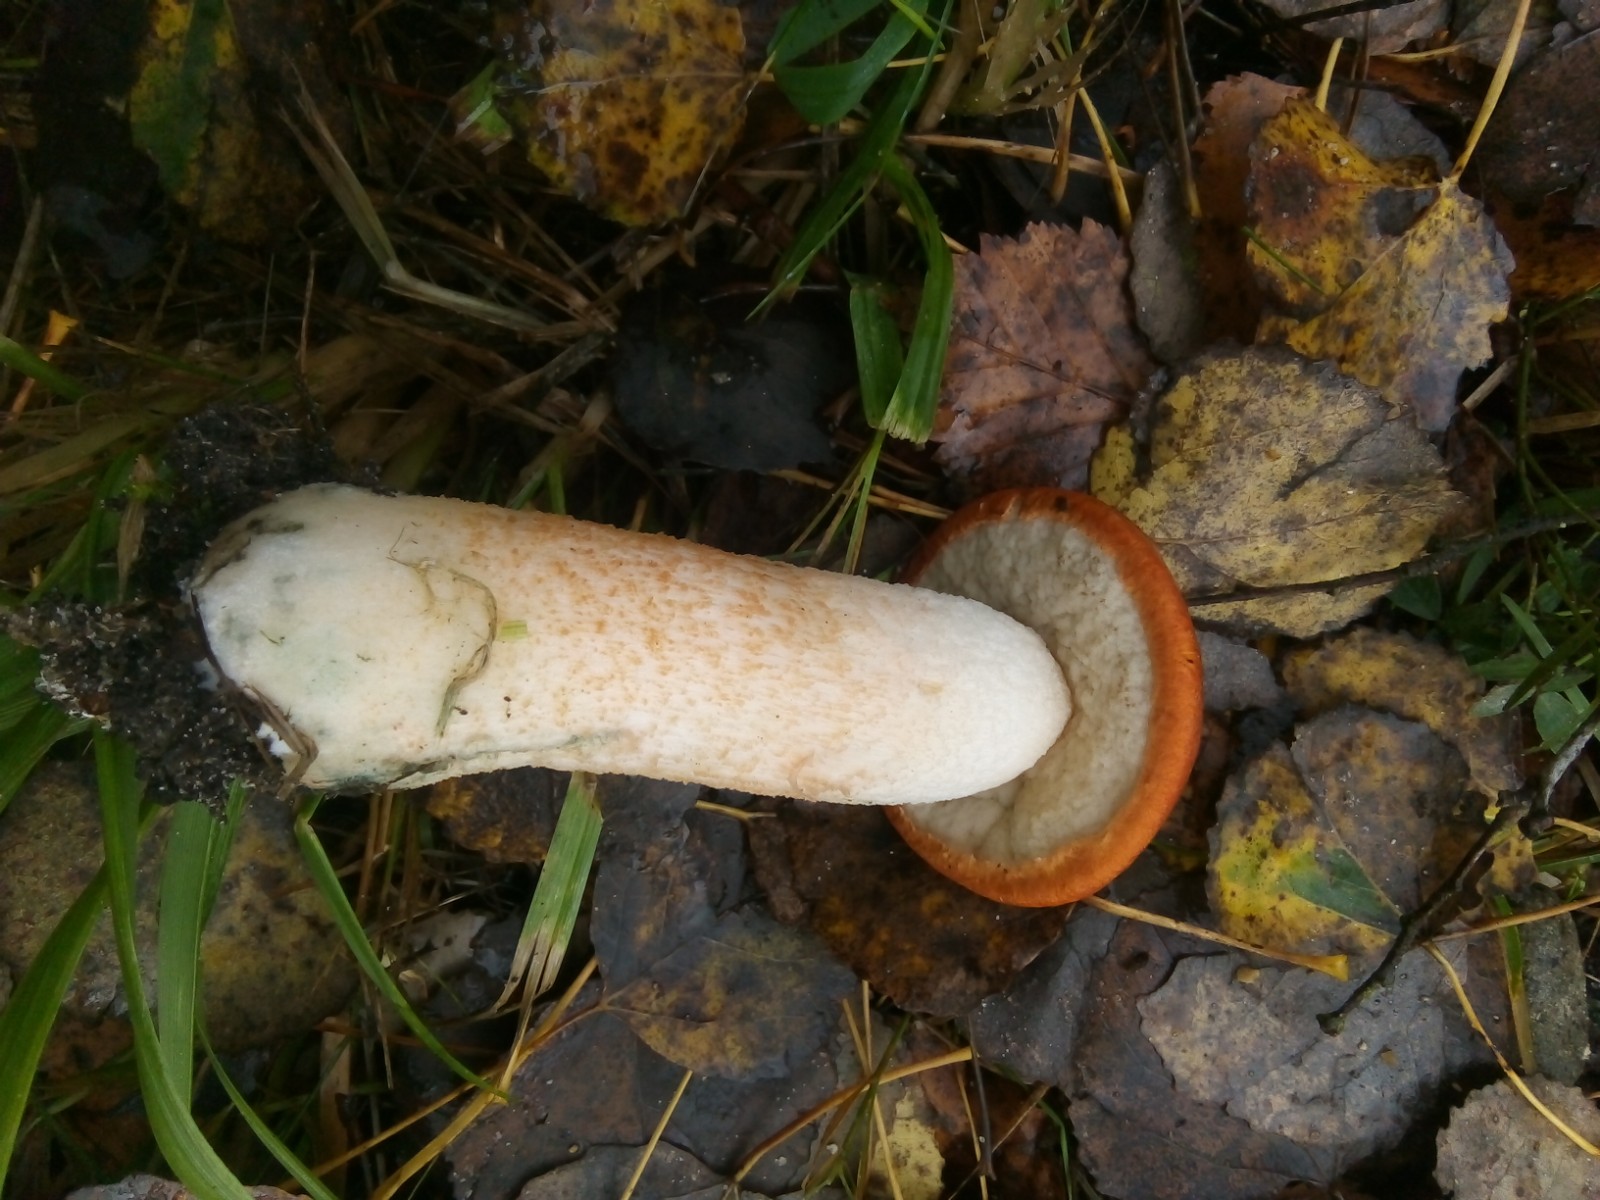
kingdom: Fungi
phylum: Basidiomycota
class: Agaricomycetes
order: Boletales
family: Boletaceae
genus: Leccinum
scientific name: Leccinum albostipitatum
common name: aspe-skælrørhat
